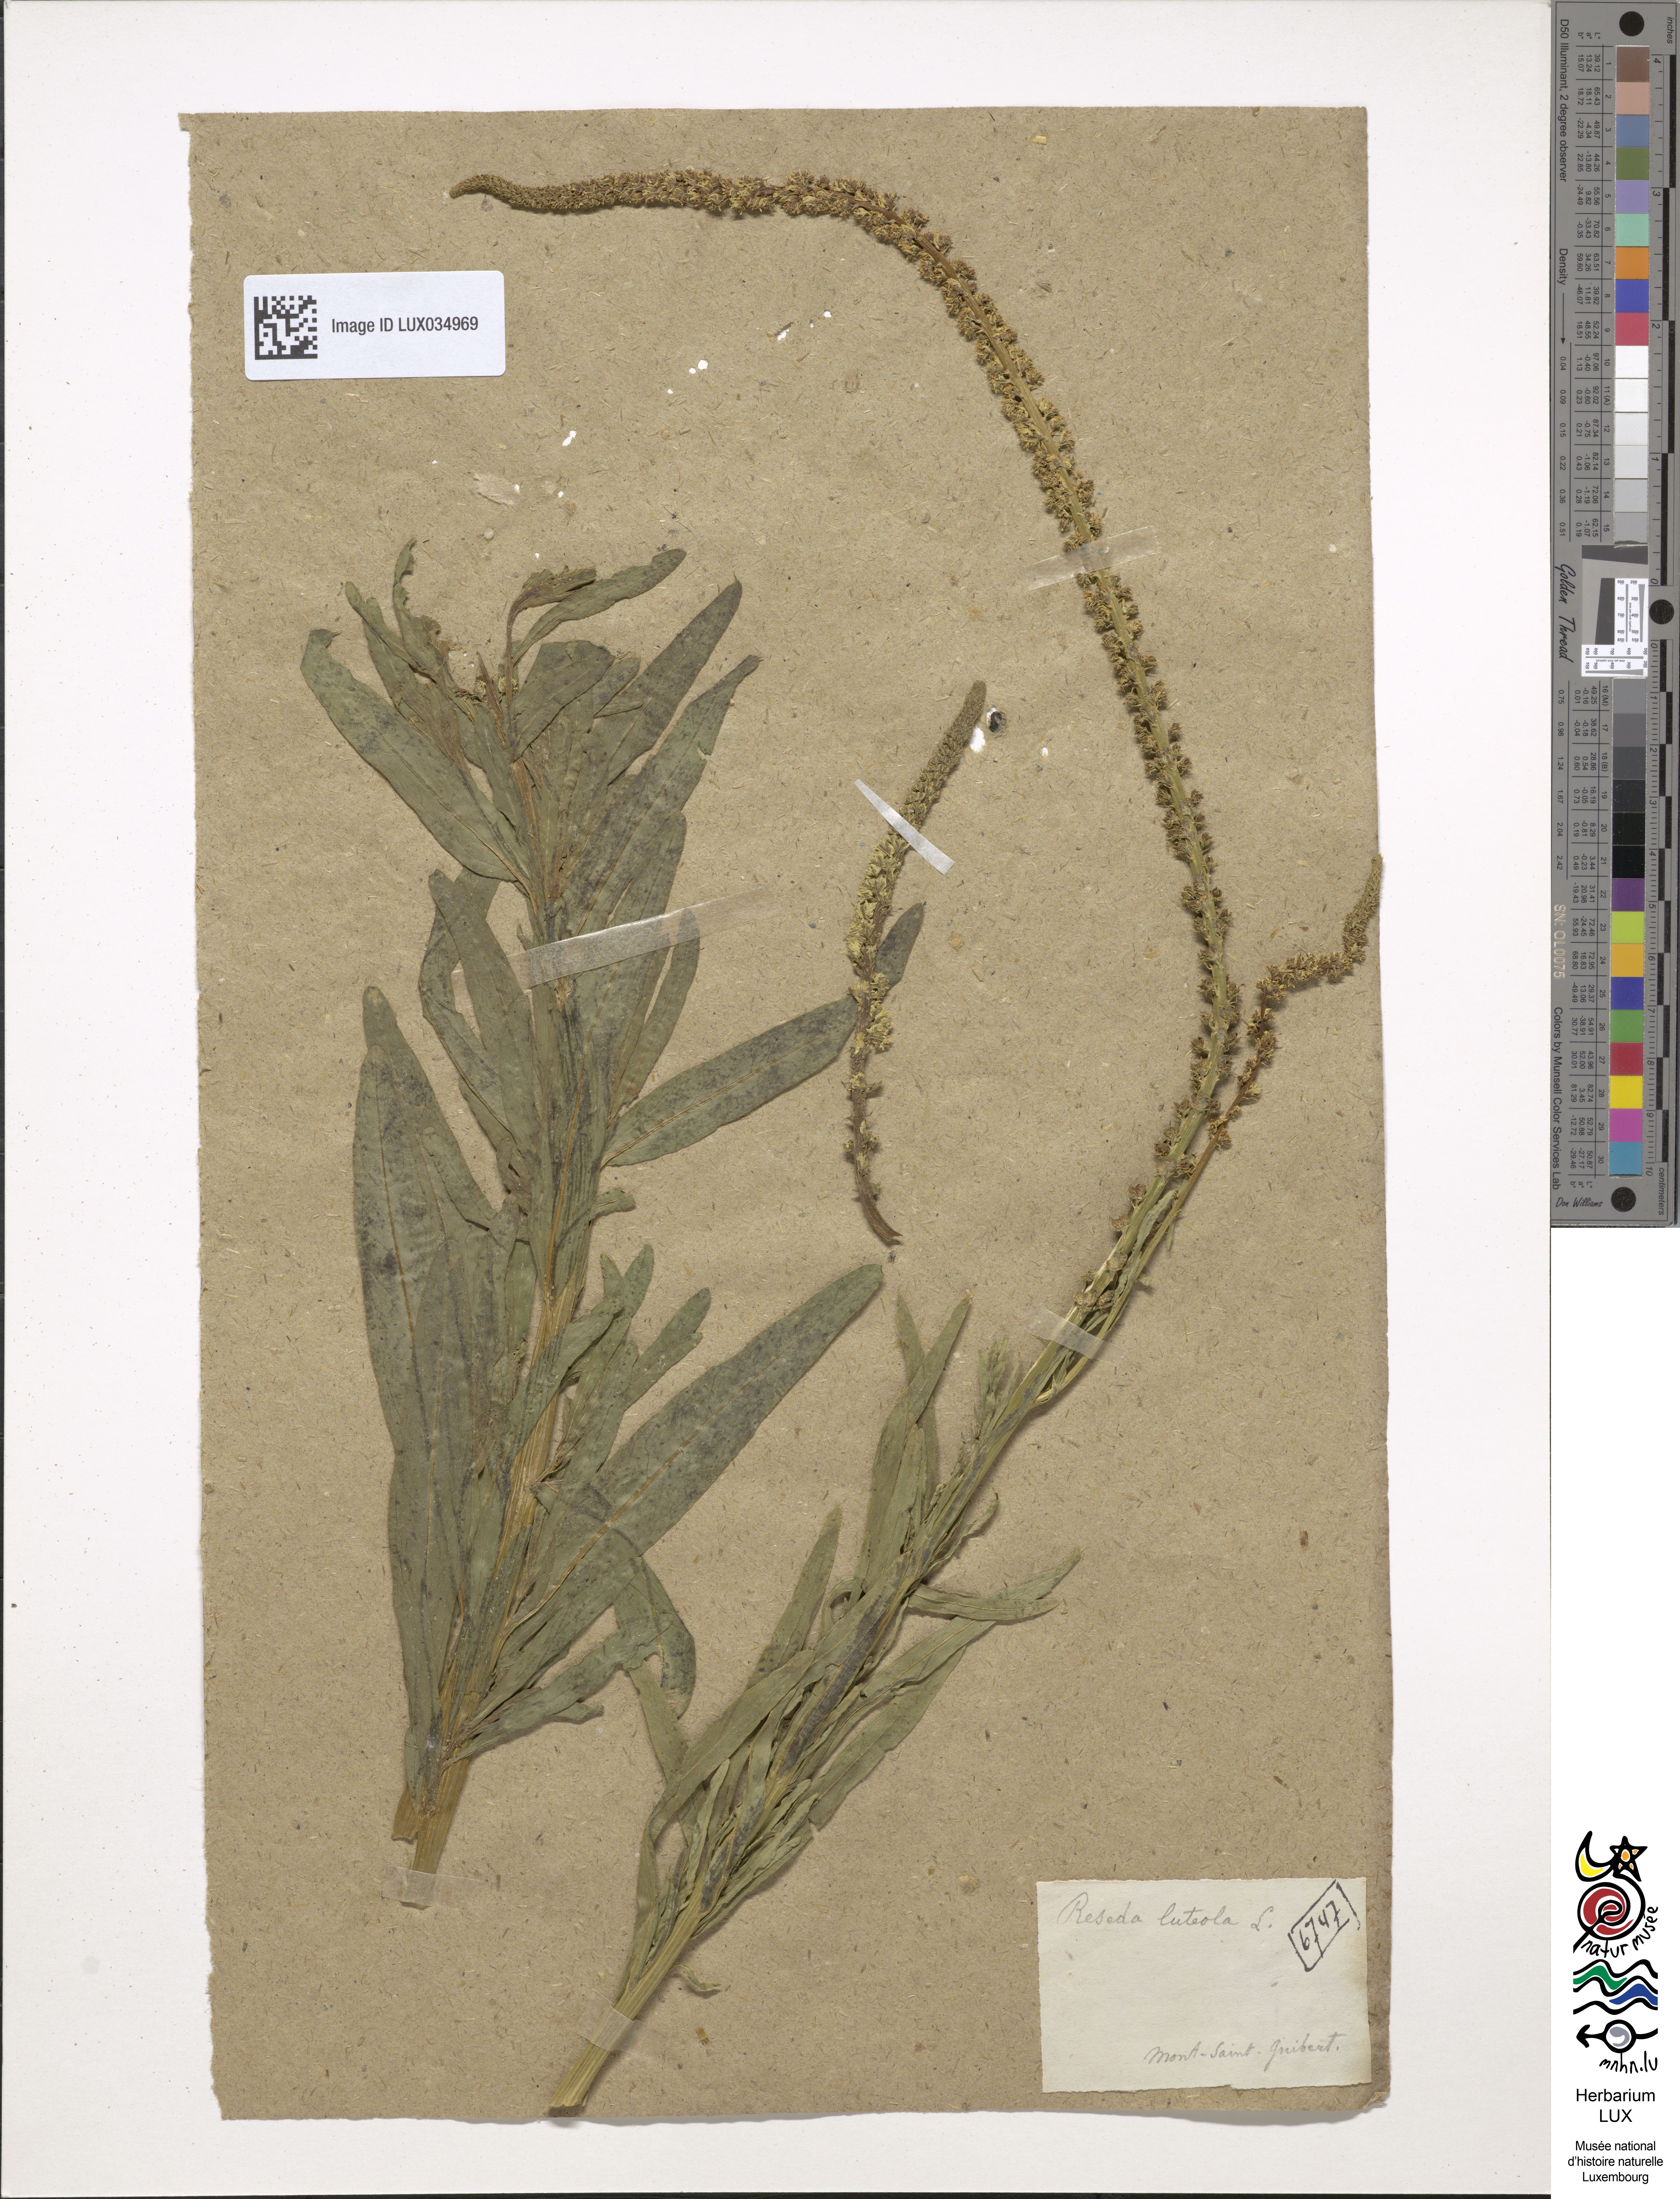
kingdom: Plantae
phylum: Tracheophyta
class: Magnoliopsida
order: Brassicales
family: Resedaceae
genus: Reseda
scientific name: Reseda luteola
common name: Weld
